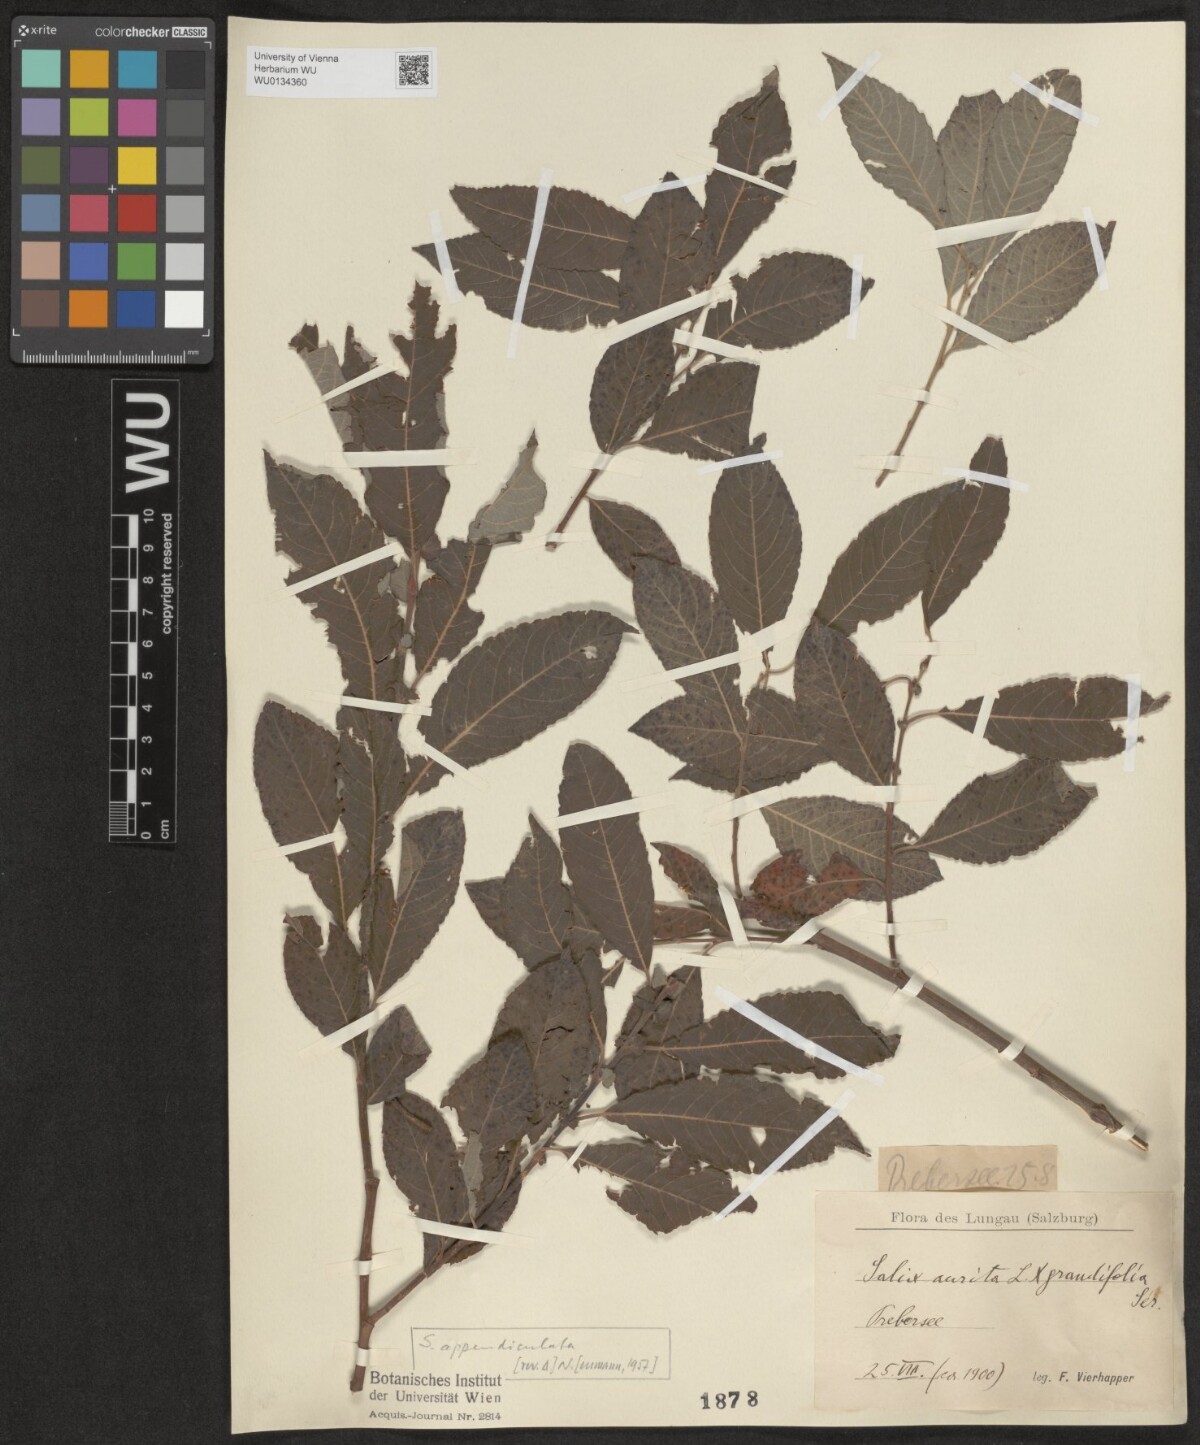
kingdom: Plantae
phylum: Tracheophyta
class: Magnoliopsida
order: Malpighiales
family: Salicaceae
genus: Salix
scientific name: Salix appendiculata
